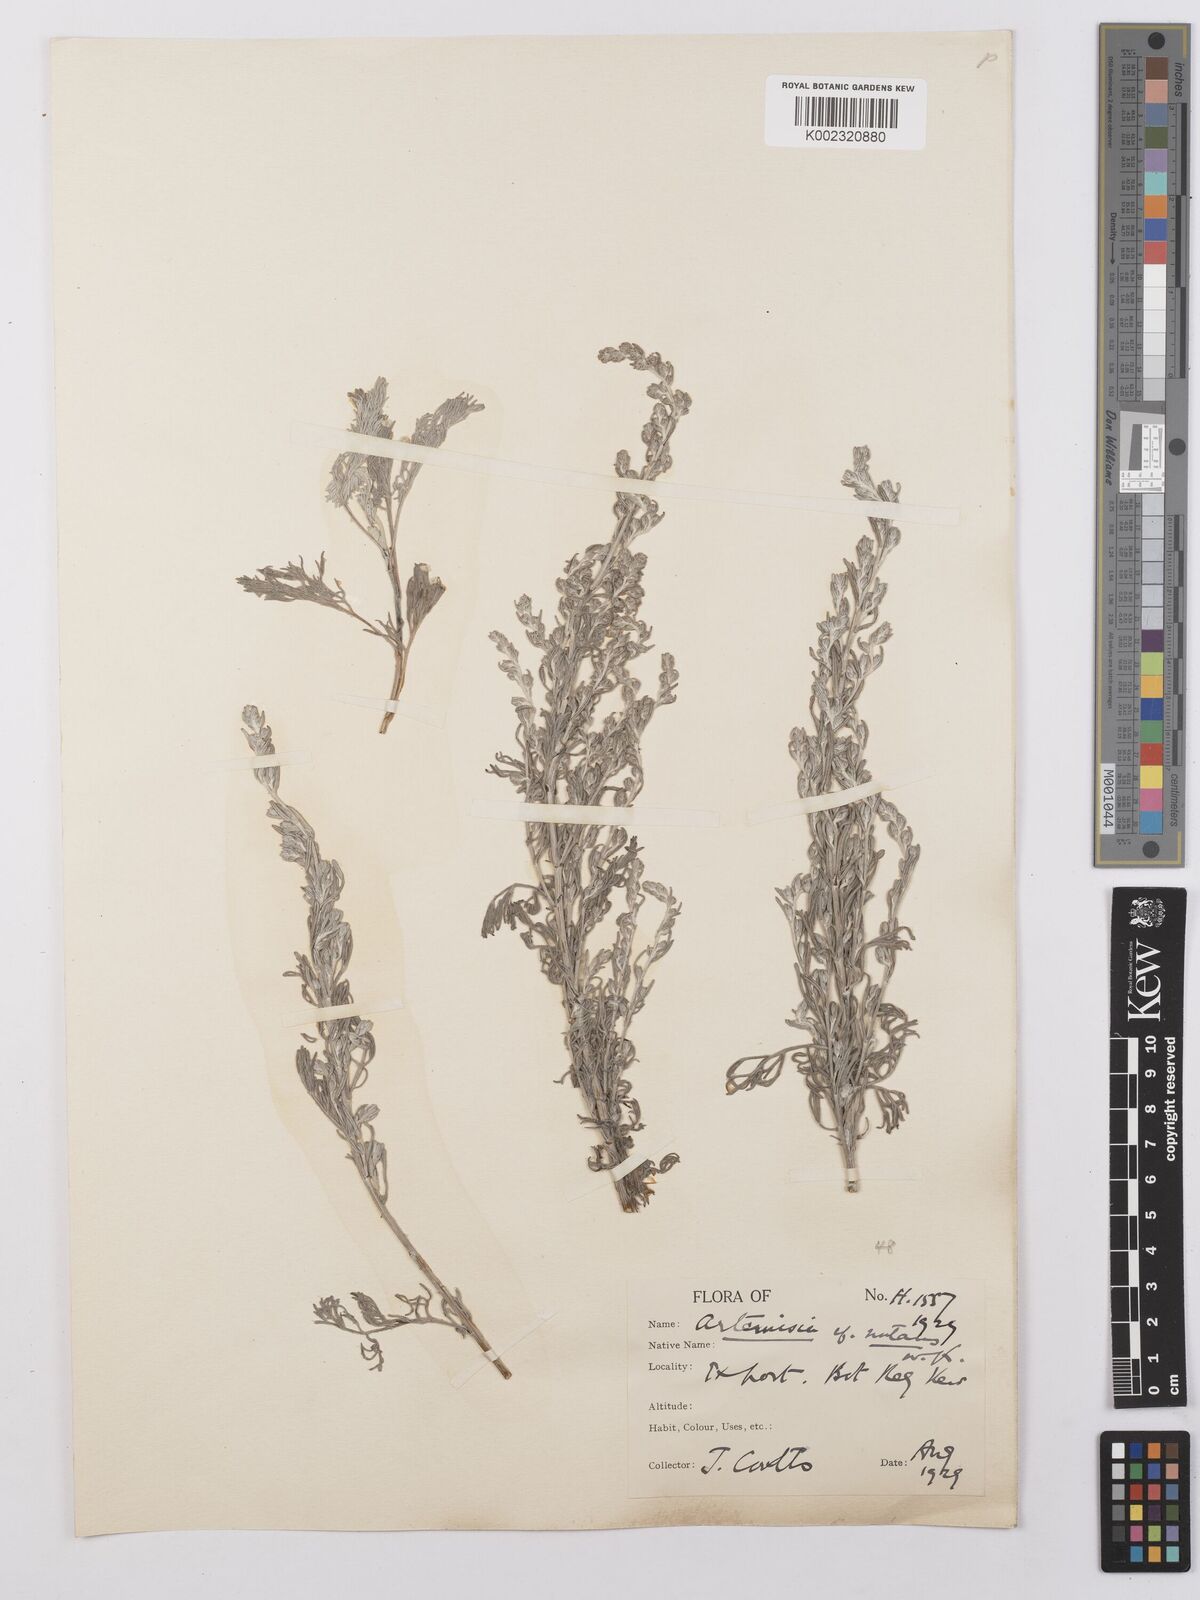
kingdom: Plantae
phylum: Tracheophyta
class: Magnoliopsida
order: Asterales
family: Asteraceae
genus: Artemisia
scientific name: Artemisia nutans
